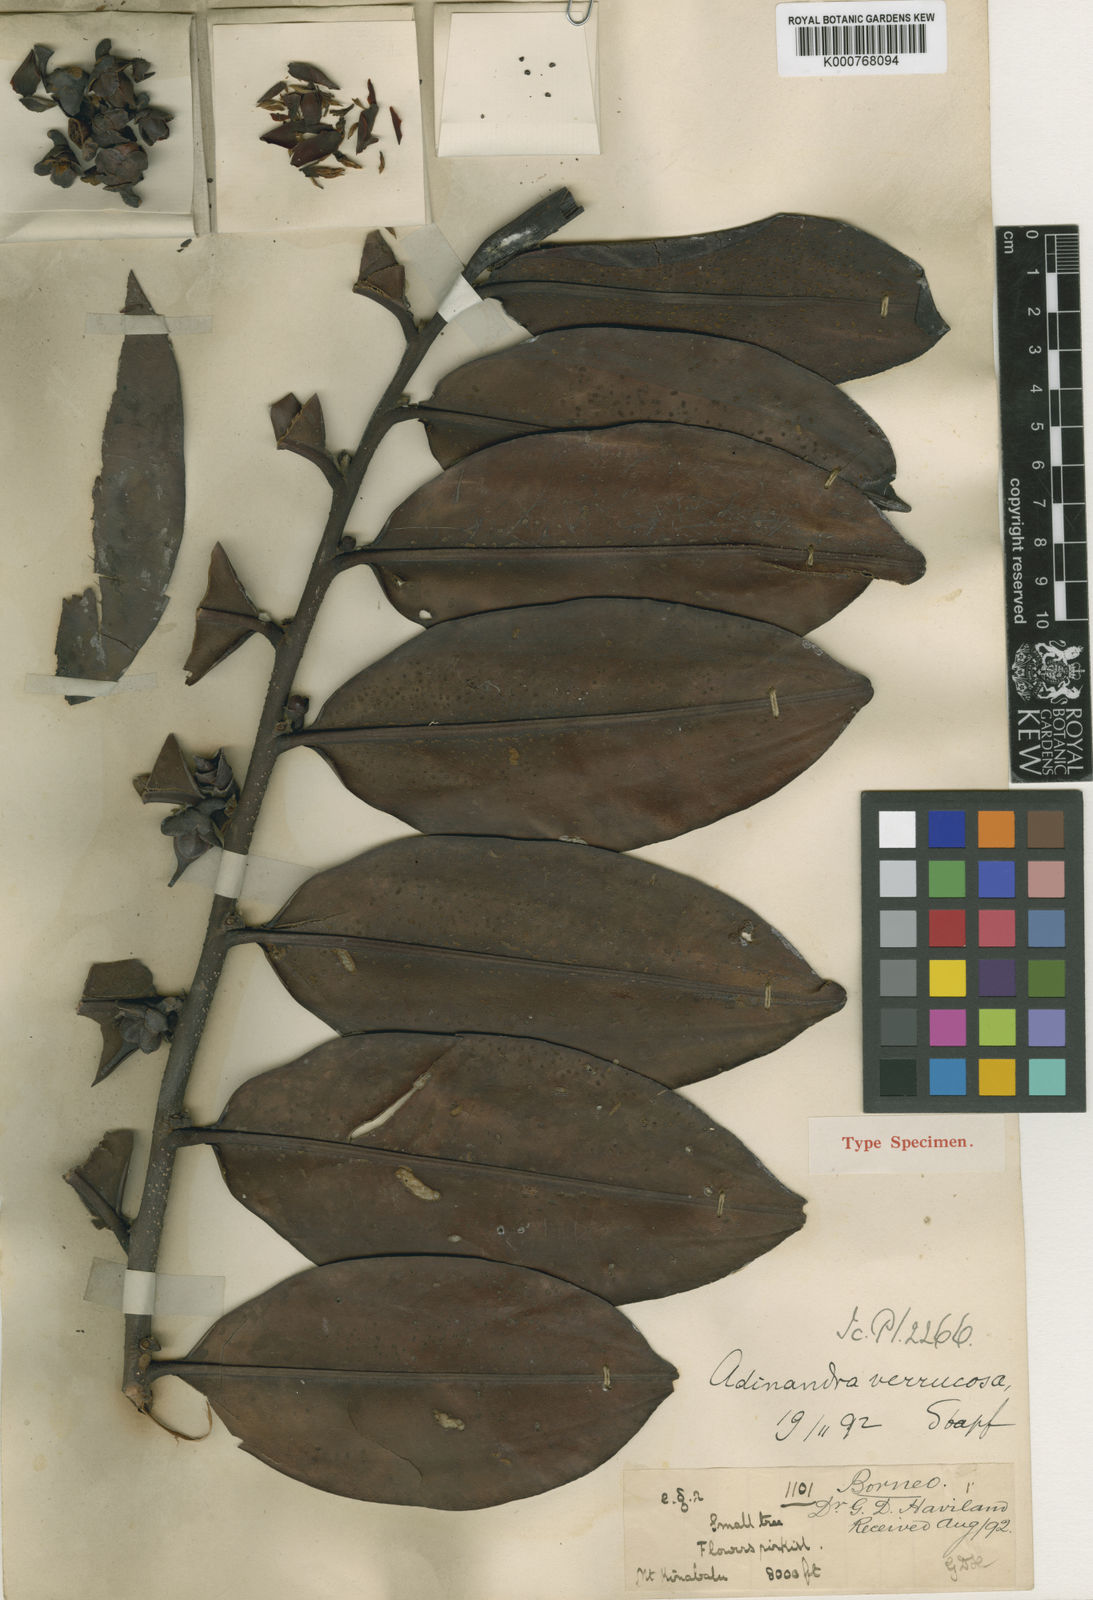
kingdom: Plantae
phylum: Tracheophyta
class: Magnoliopsida
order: Ericales
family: Pentaphylacaceae
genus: Adinandra
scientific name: Adinandra verrucosa
